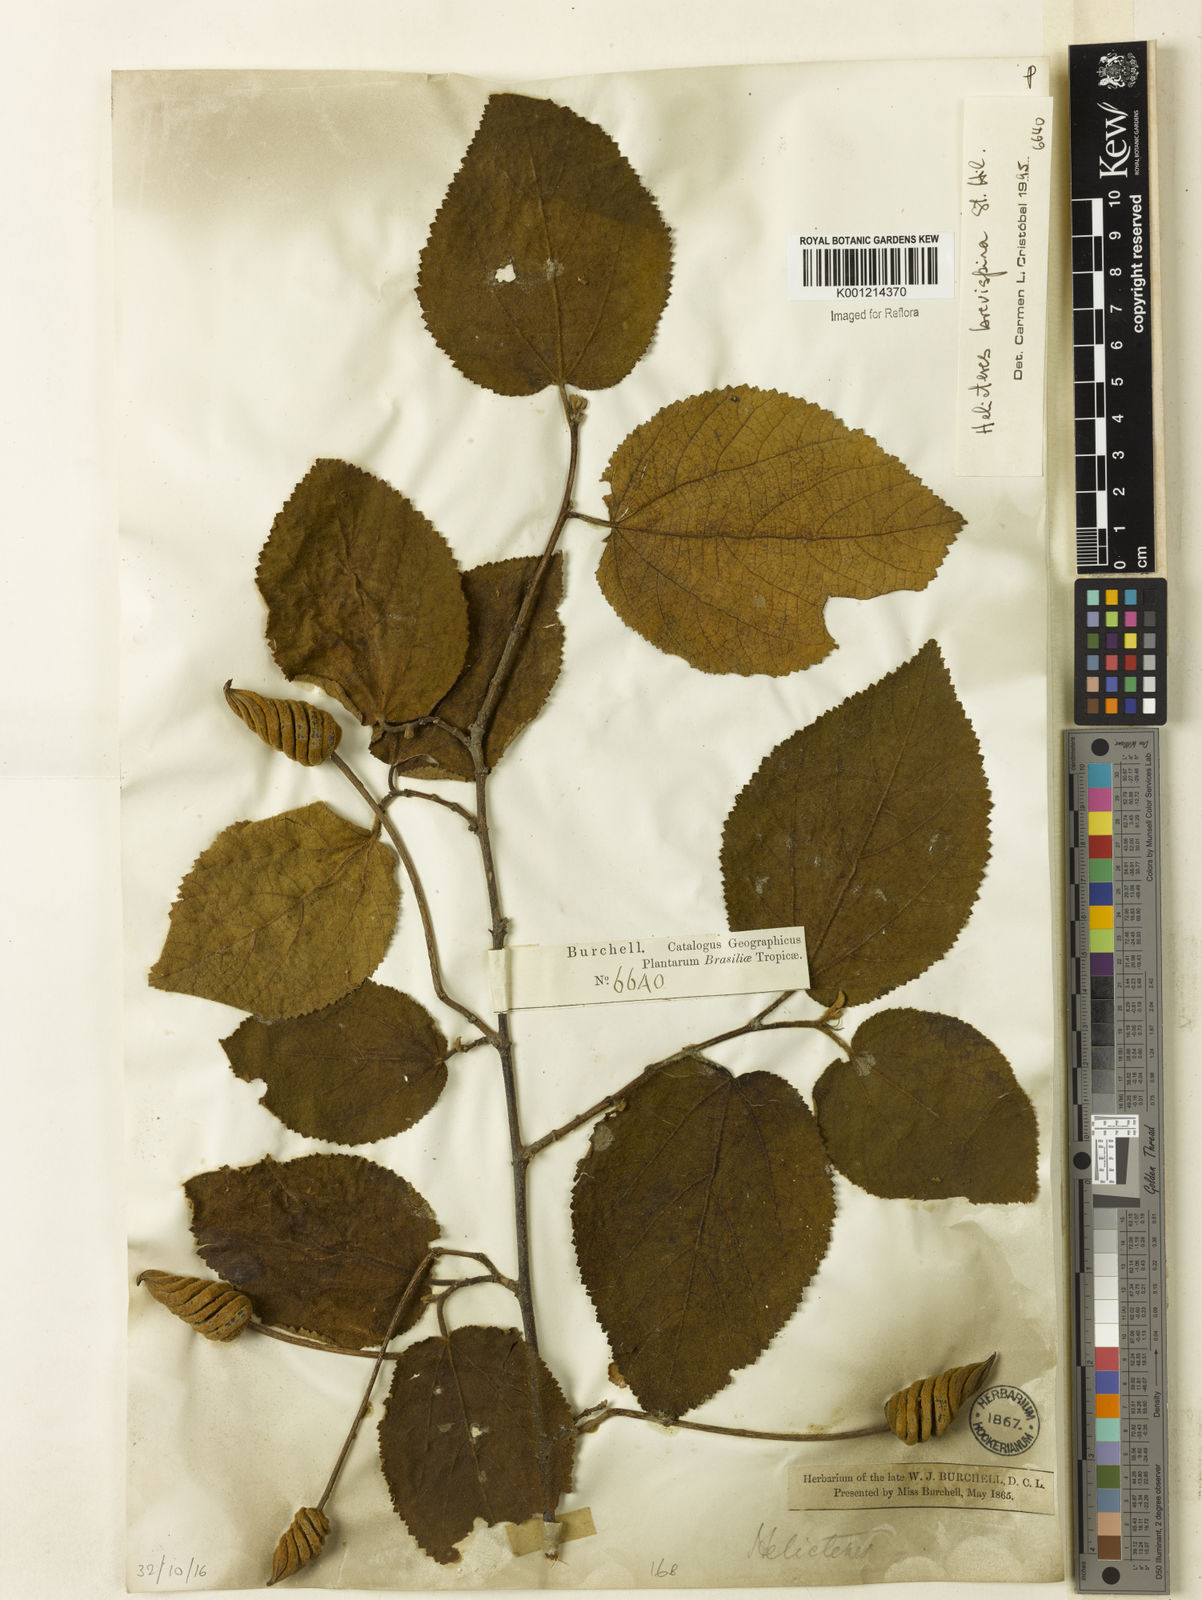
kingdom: Plantae
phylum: Tracheophyta
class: Magnoliopsida
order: Malvales
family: Malvaceae
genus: Helicteres
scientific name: Helicteres
